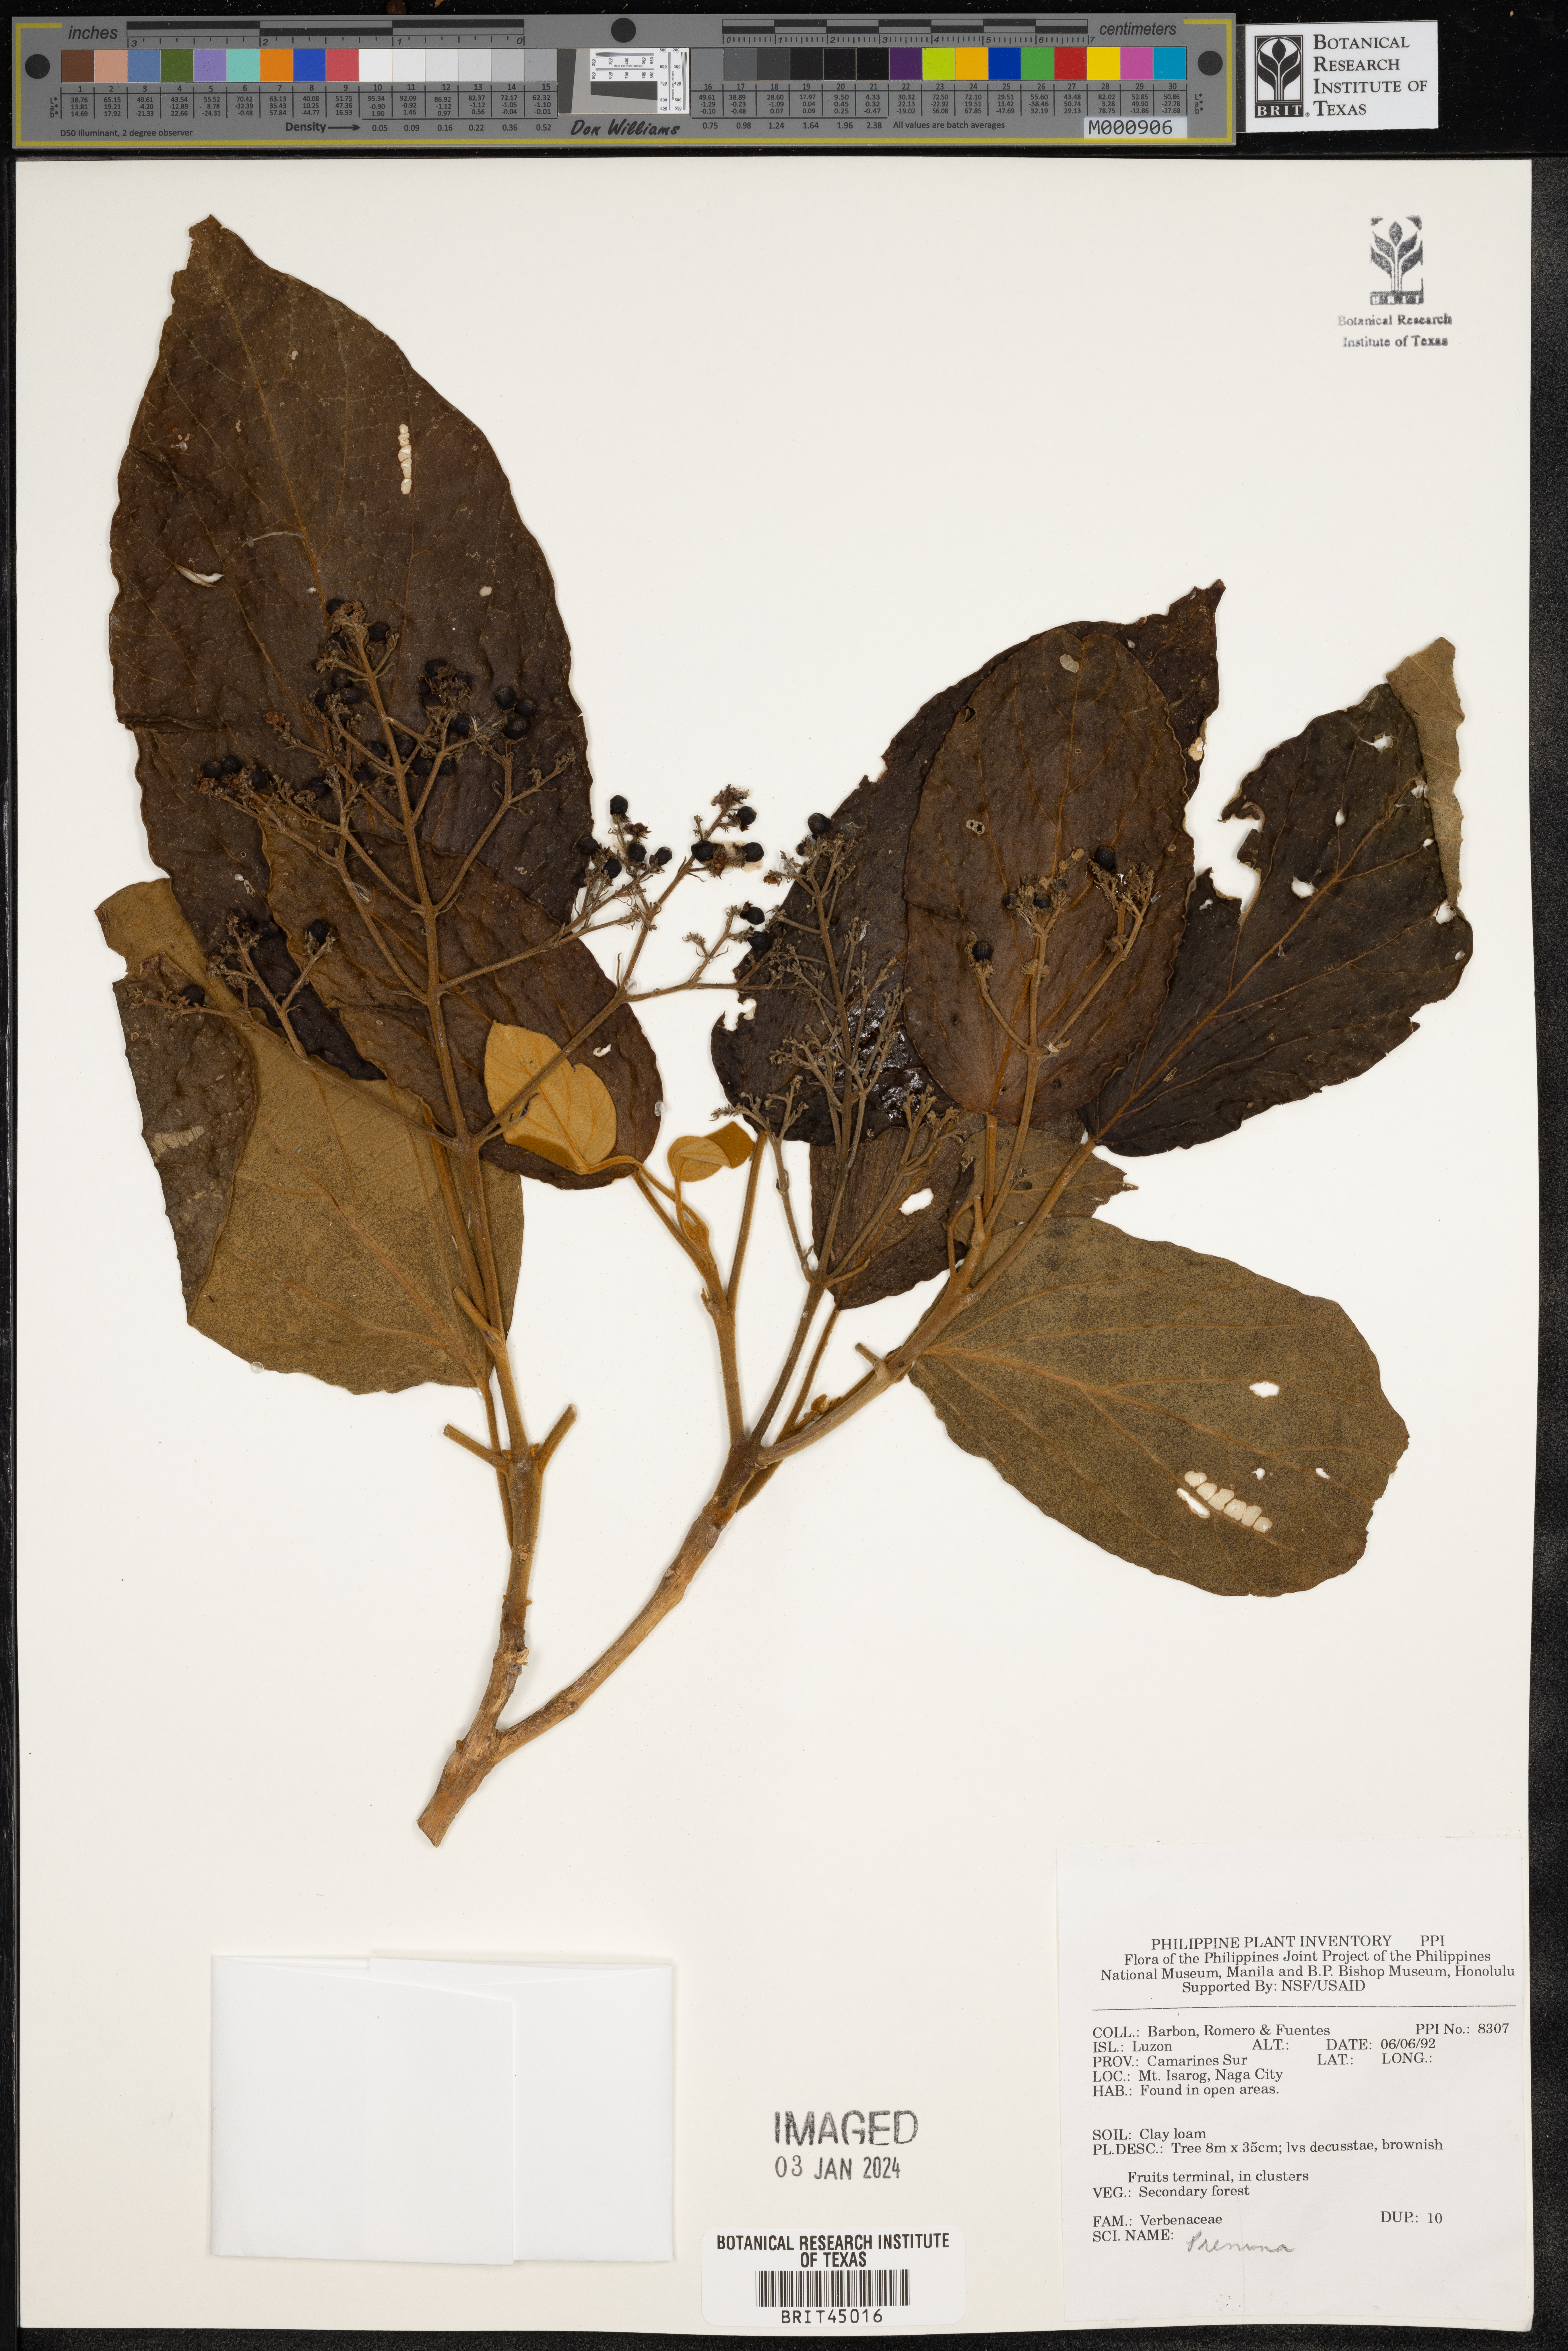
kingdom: Plantae
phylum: Tracheophyta
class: Magnoliopsida
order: Lamiales
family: Lamiaceae
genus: Premna
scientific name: Premna
